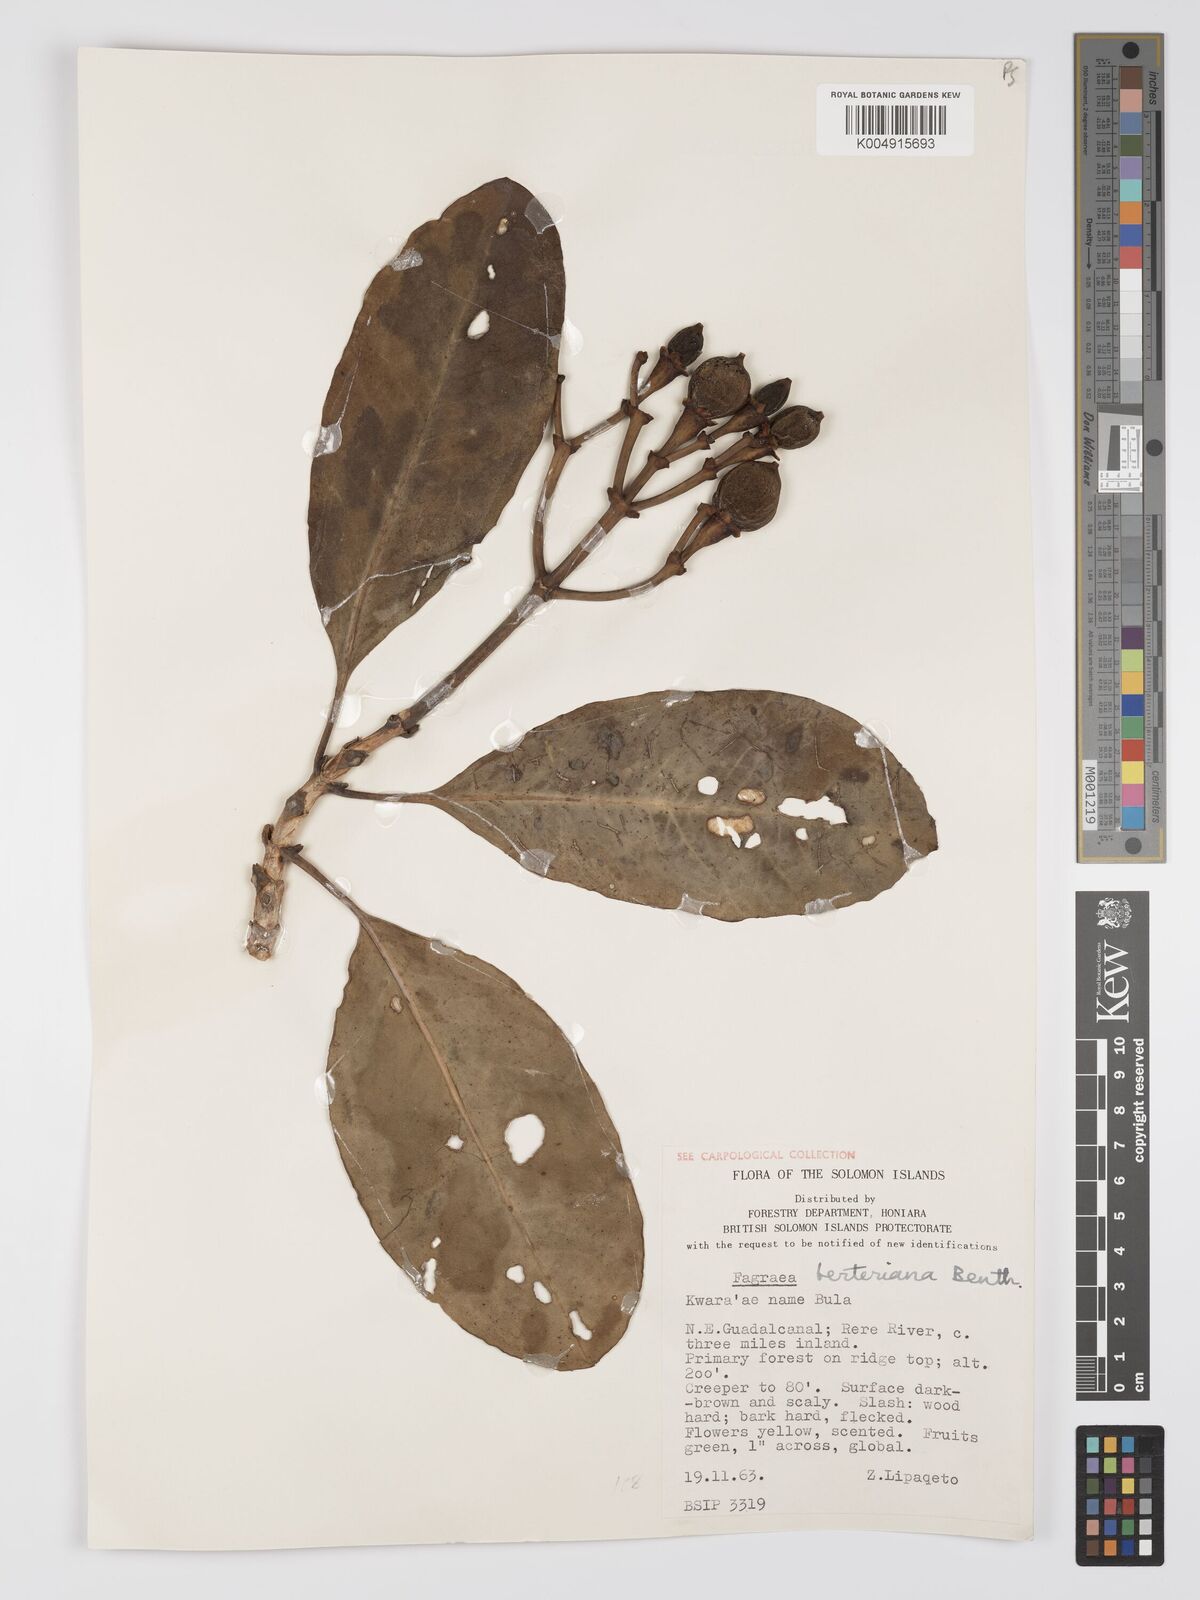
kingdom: Plantae
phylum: Tracheophyta
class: Magnoliopsida
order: Gentianales
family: Gentianaceae
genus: Fagraea
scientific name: Fagraea berteroana
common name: Cape jitta
